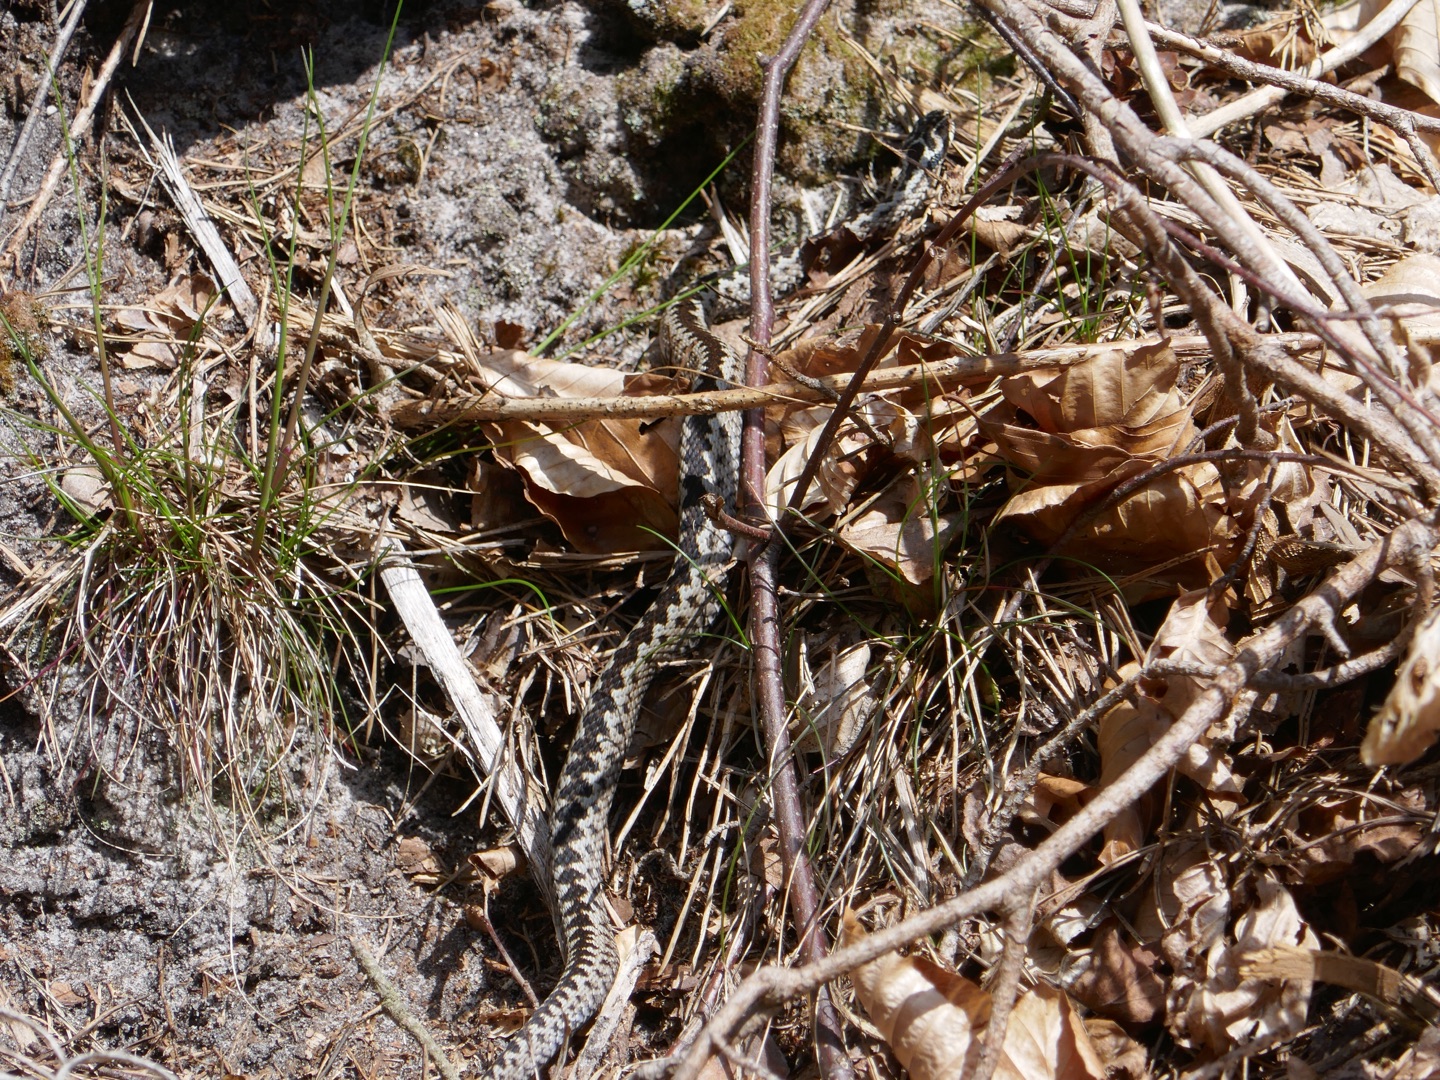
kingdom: Animalia
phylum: Chordata
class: Squamata
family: Viperidae
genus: Vipera
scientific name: Vipera berus
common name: Hugorm
